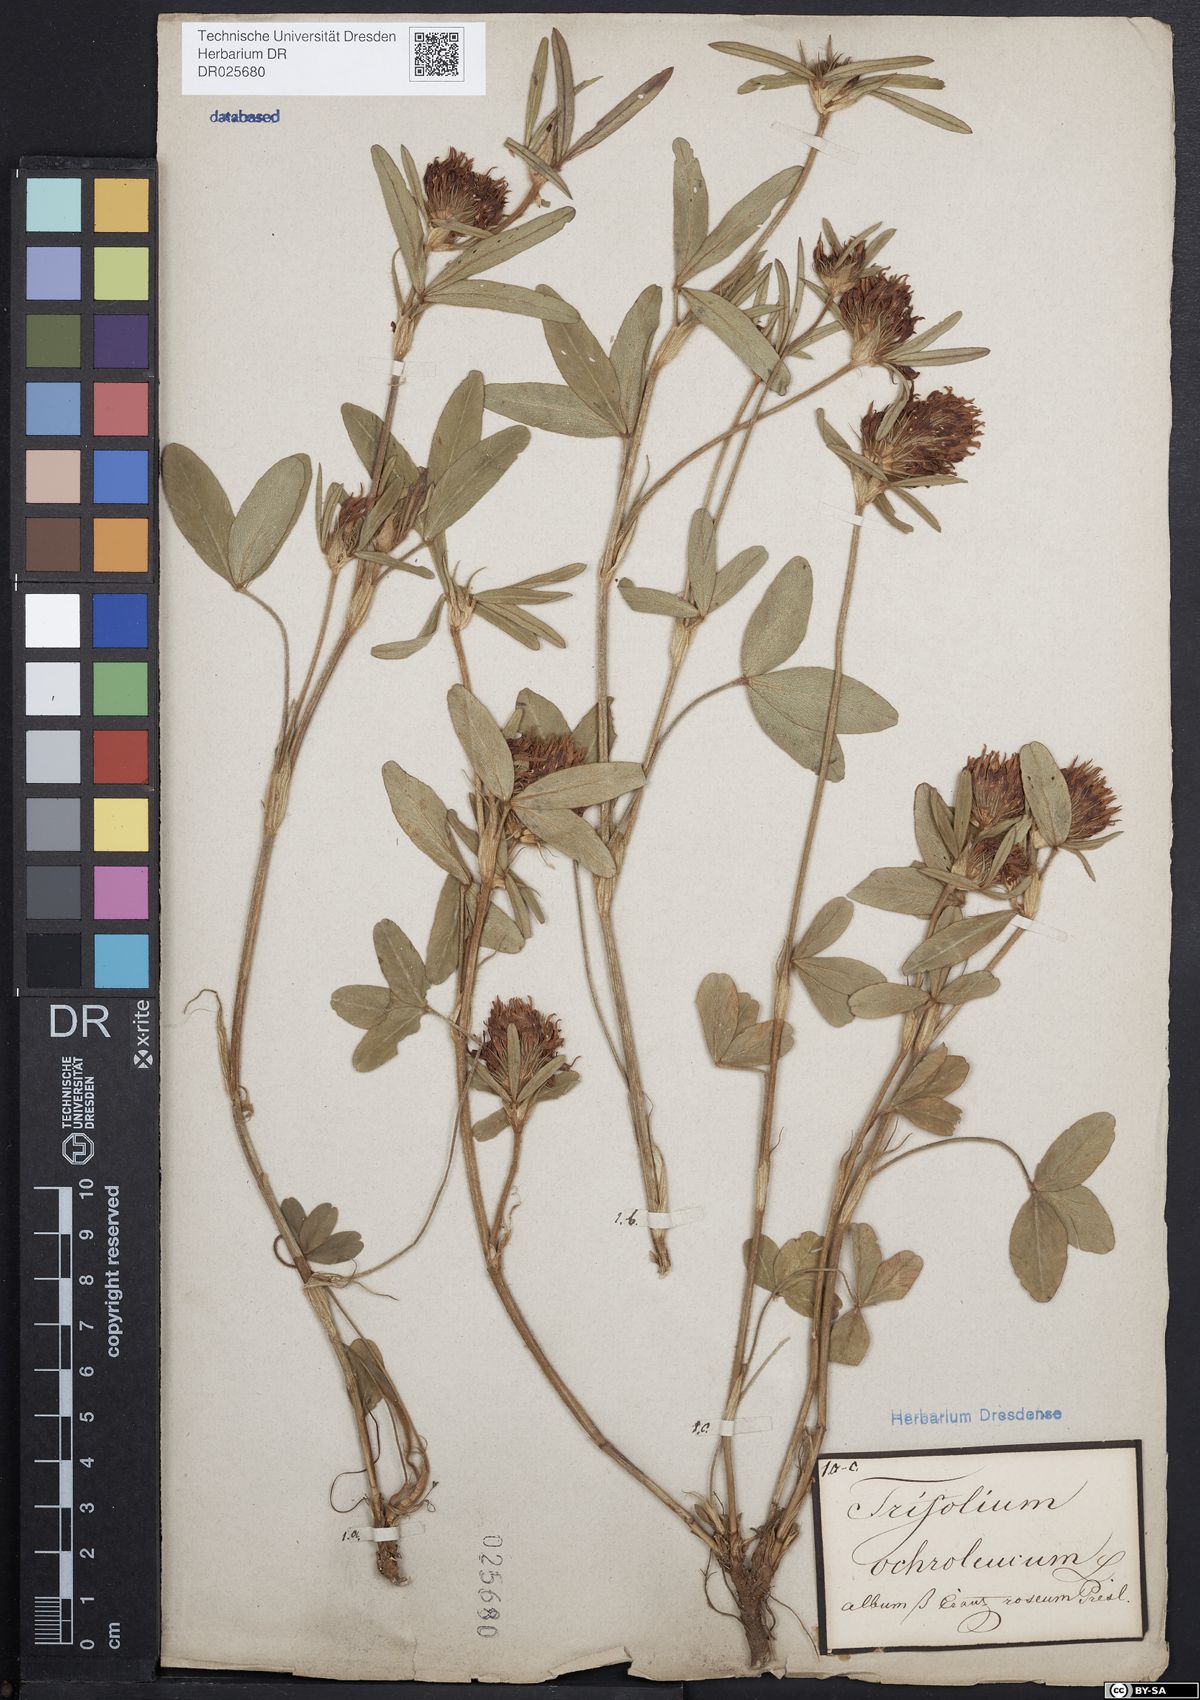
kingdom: Plantae
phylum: Tracheophyta
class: Magnoliopsida
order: Fabales
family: Fabaceae
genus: Trifolium
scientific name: Trifolium ochroleucon
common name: Sulphur clover
